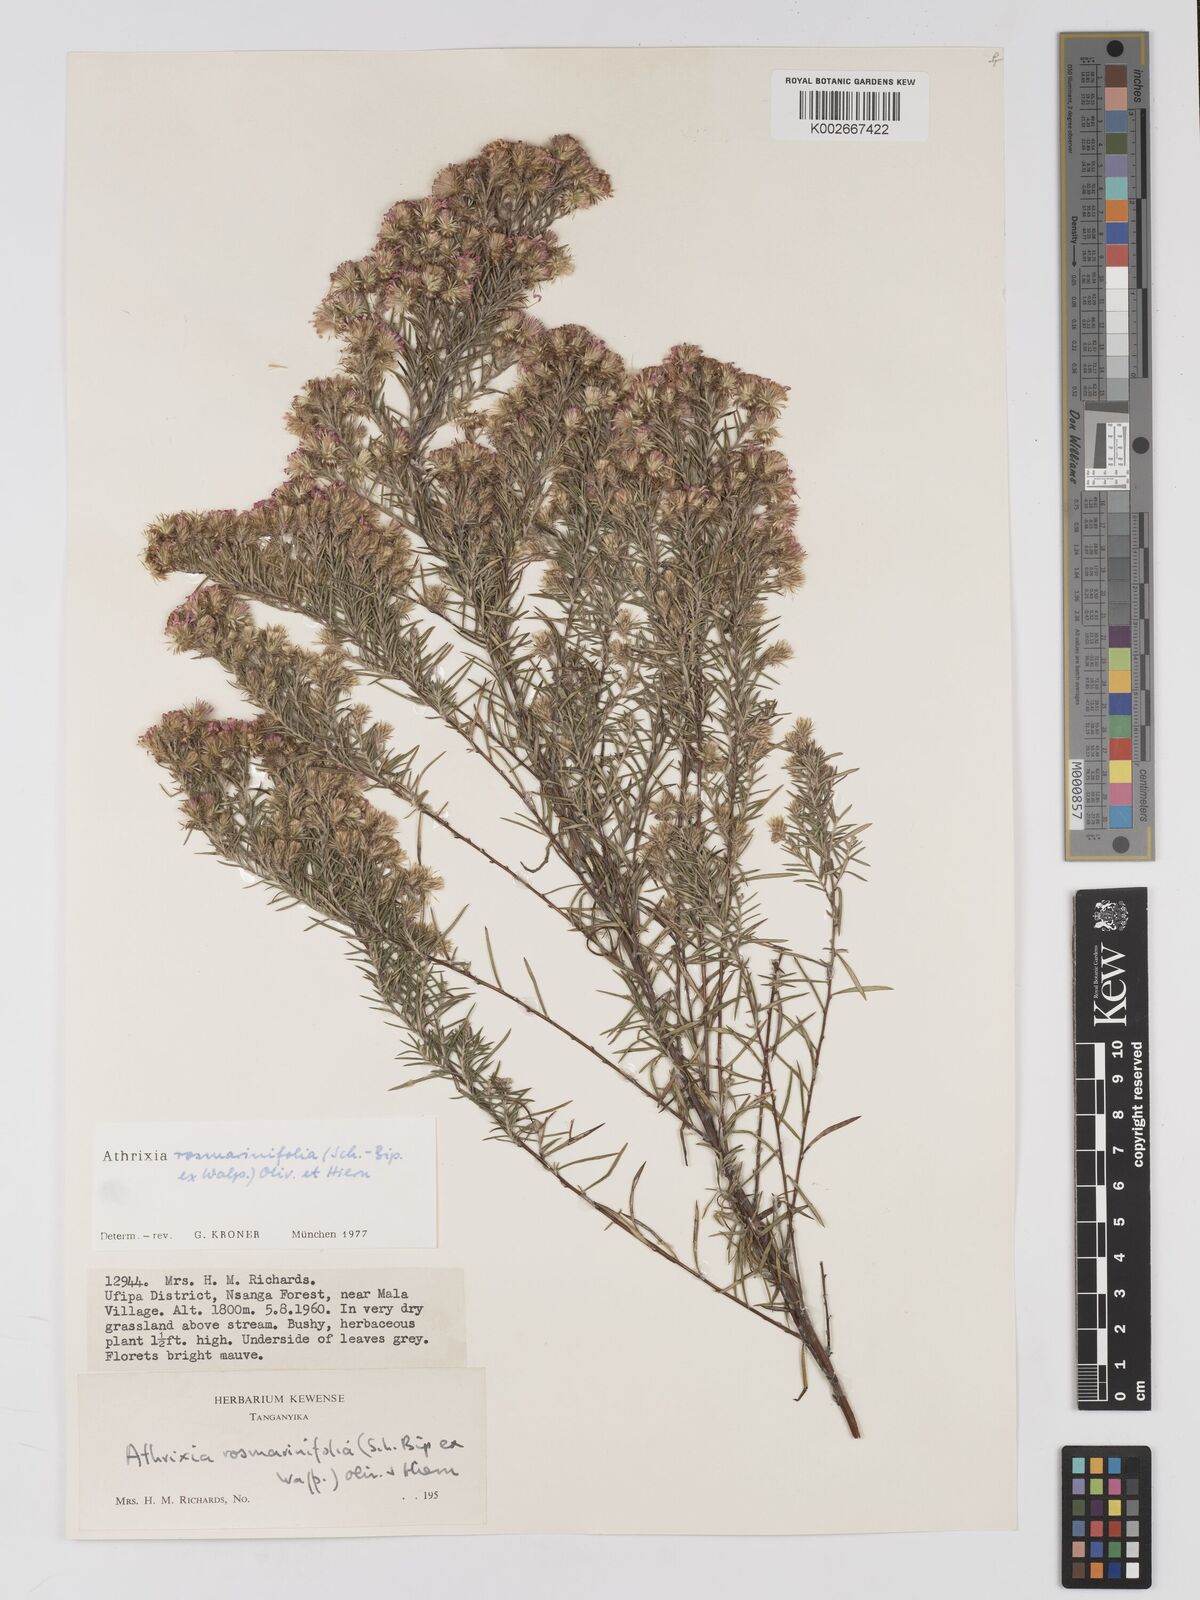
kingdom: Plantae
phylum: Tracheophyta
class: Magnoliopsida
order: Asterales
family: Asteraceae
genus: Athrixia
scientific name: Athrixia rosmarinifolia
